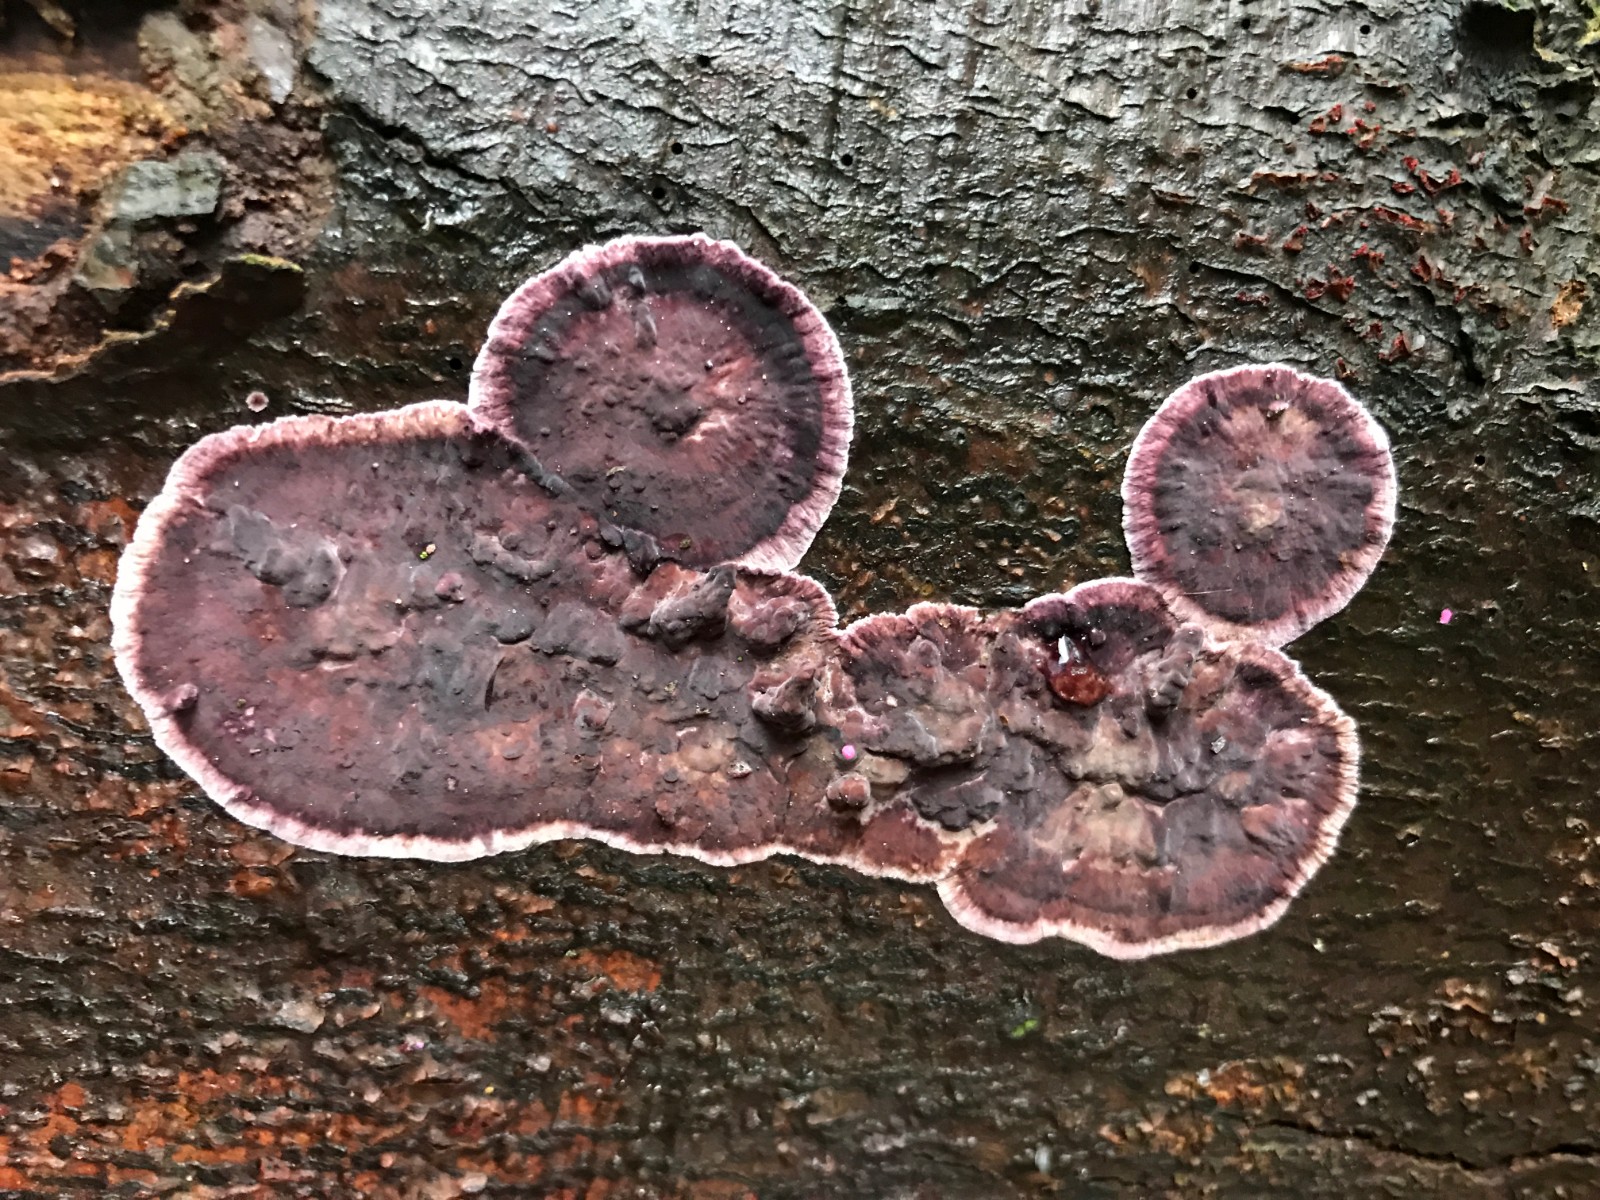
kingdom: Fungi
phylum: Basidiomycota
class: Agaricomycetes
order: Agaricales
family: Cyphellaceae
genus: Chondrostereum
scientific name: Chondrostereum purpureum
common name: purpurlædersvamp
